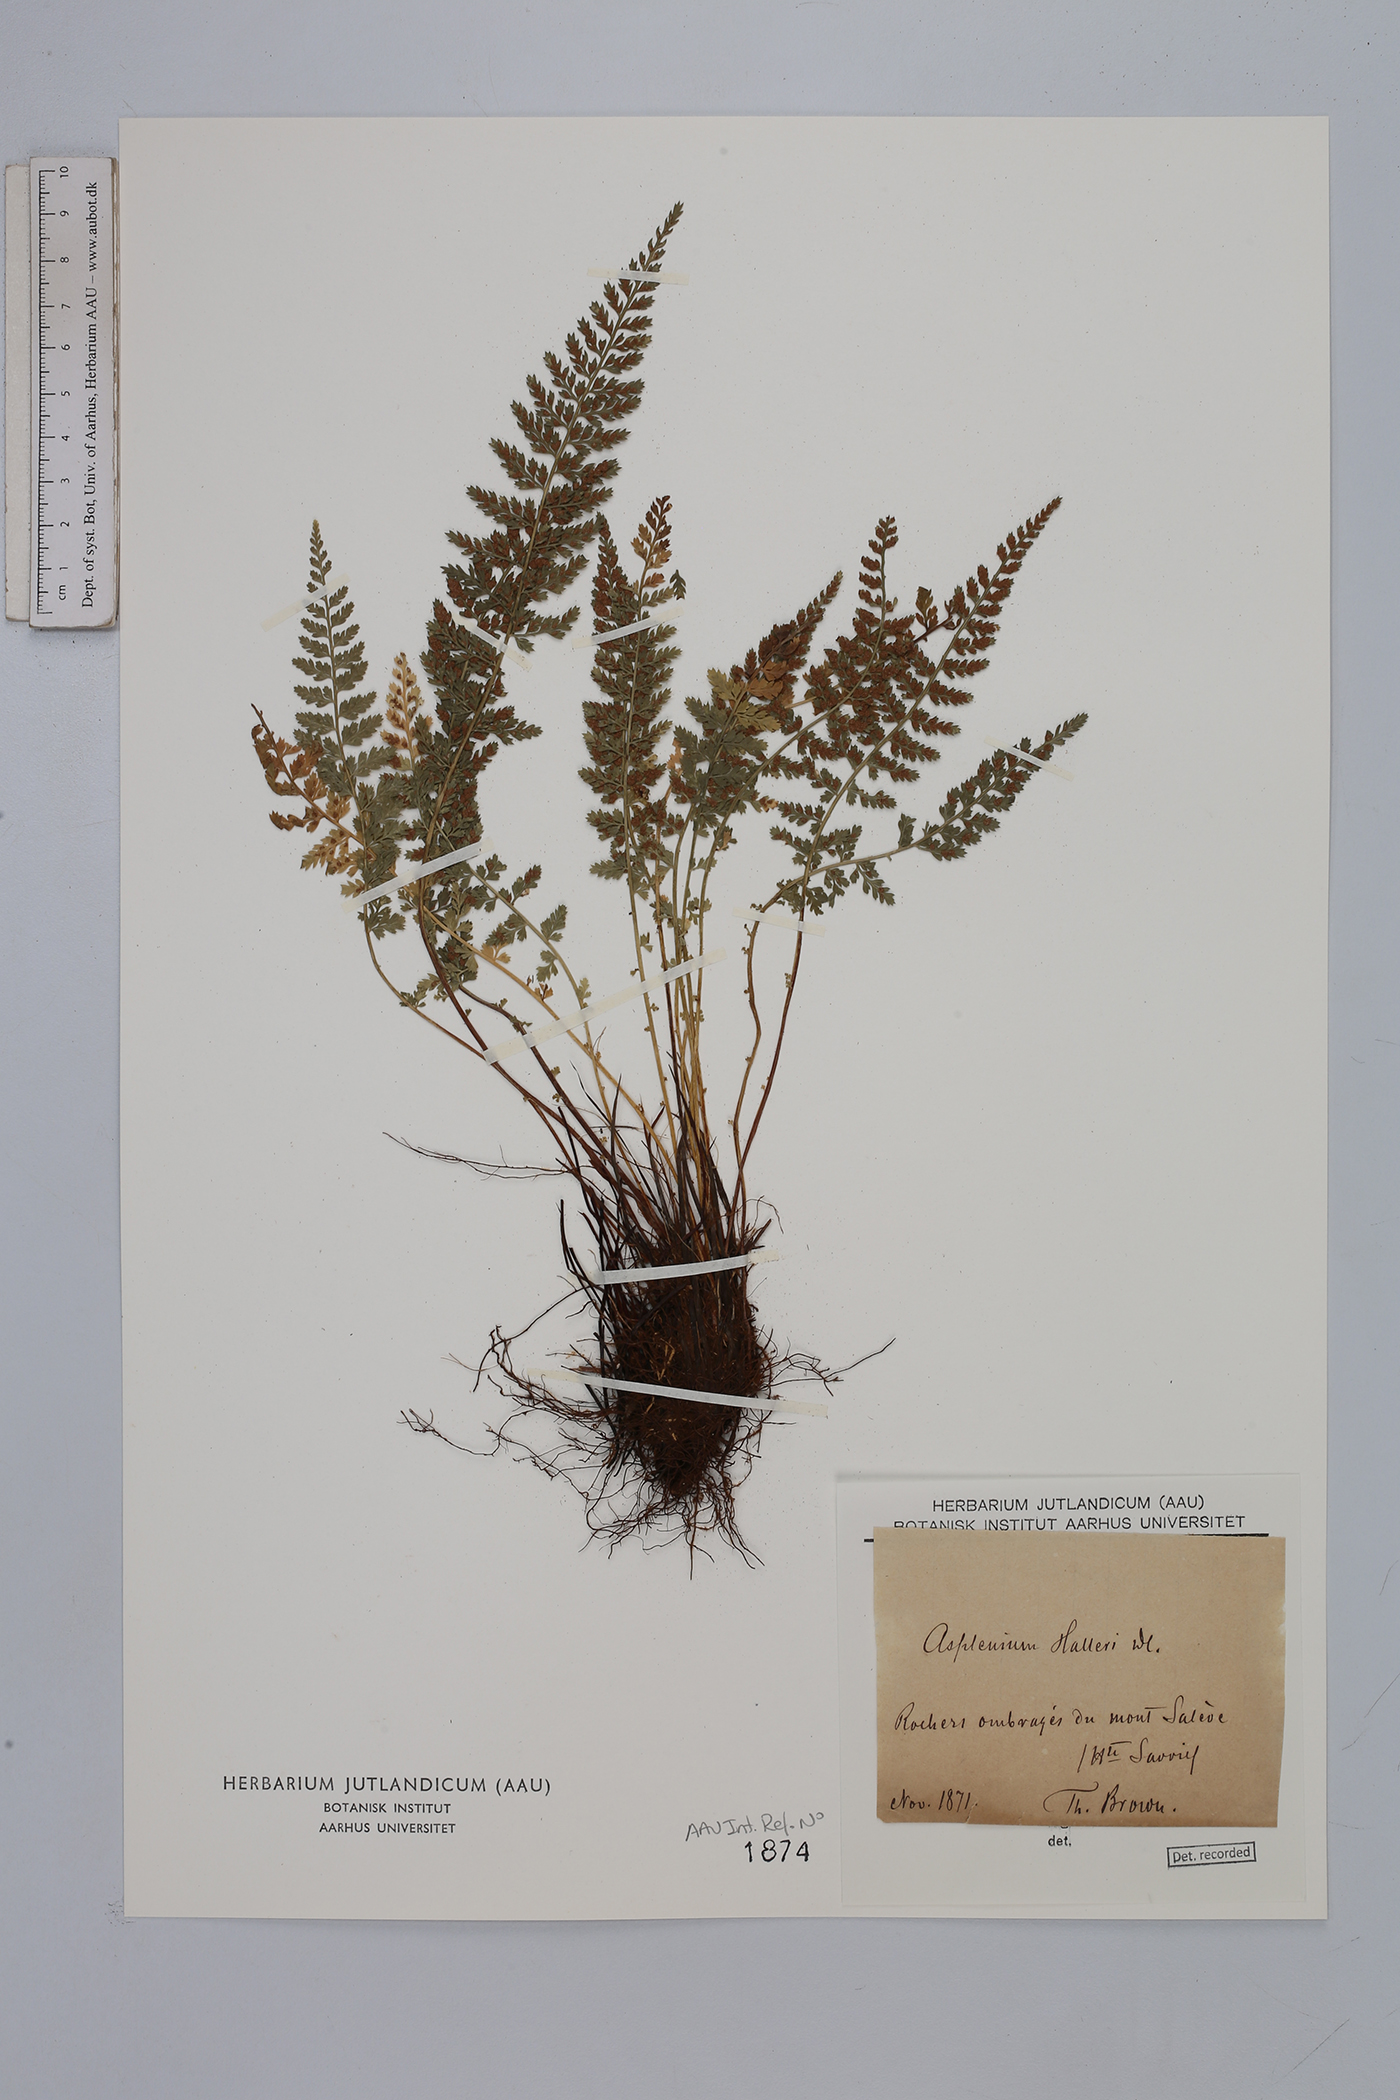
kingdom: Plantae
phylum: Tracheophyta
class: Polypodiopsida
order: Polypodiales
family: Aspleniaceae
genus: Asplenium
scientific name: Asplenium fontanum
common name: Fountain spleenwort
